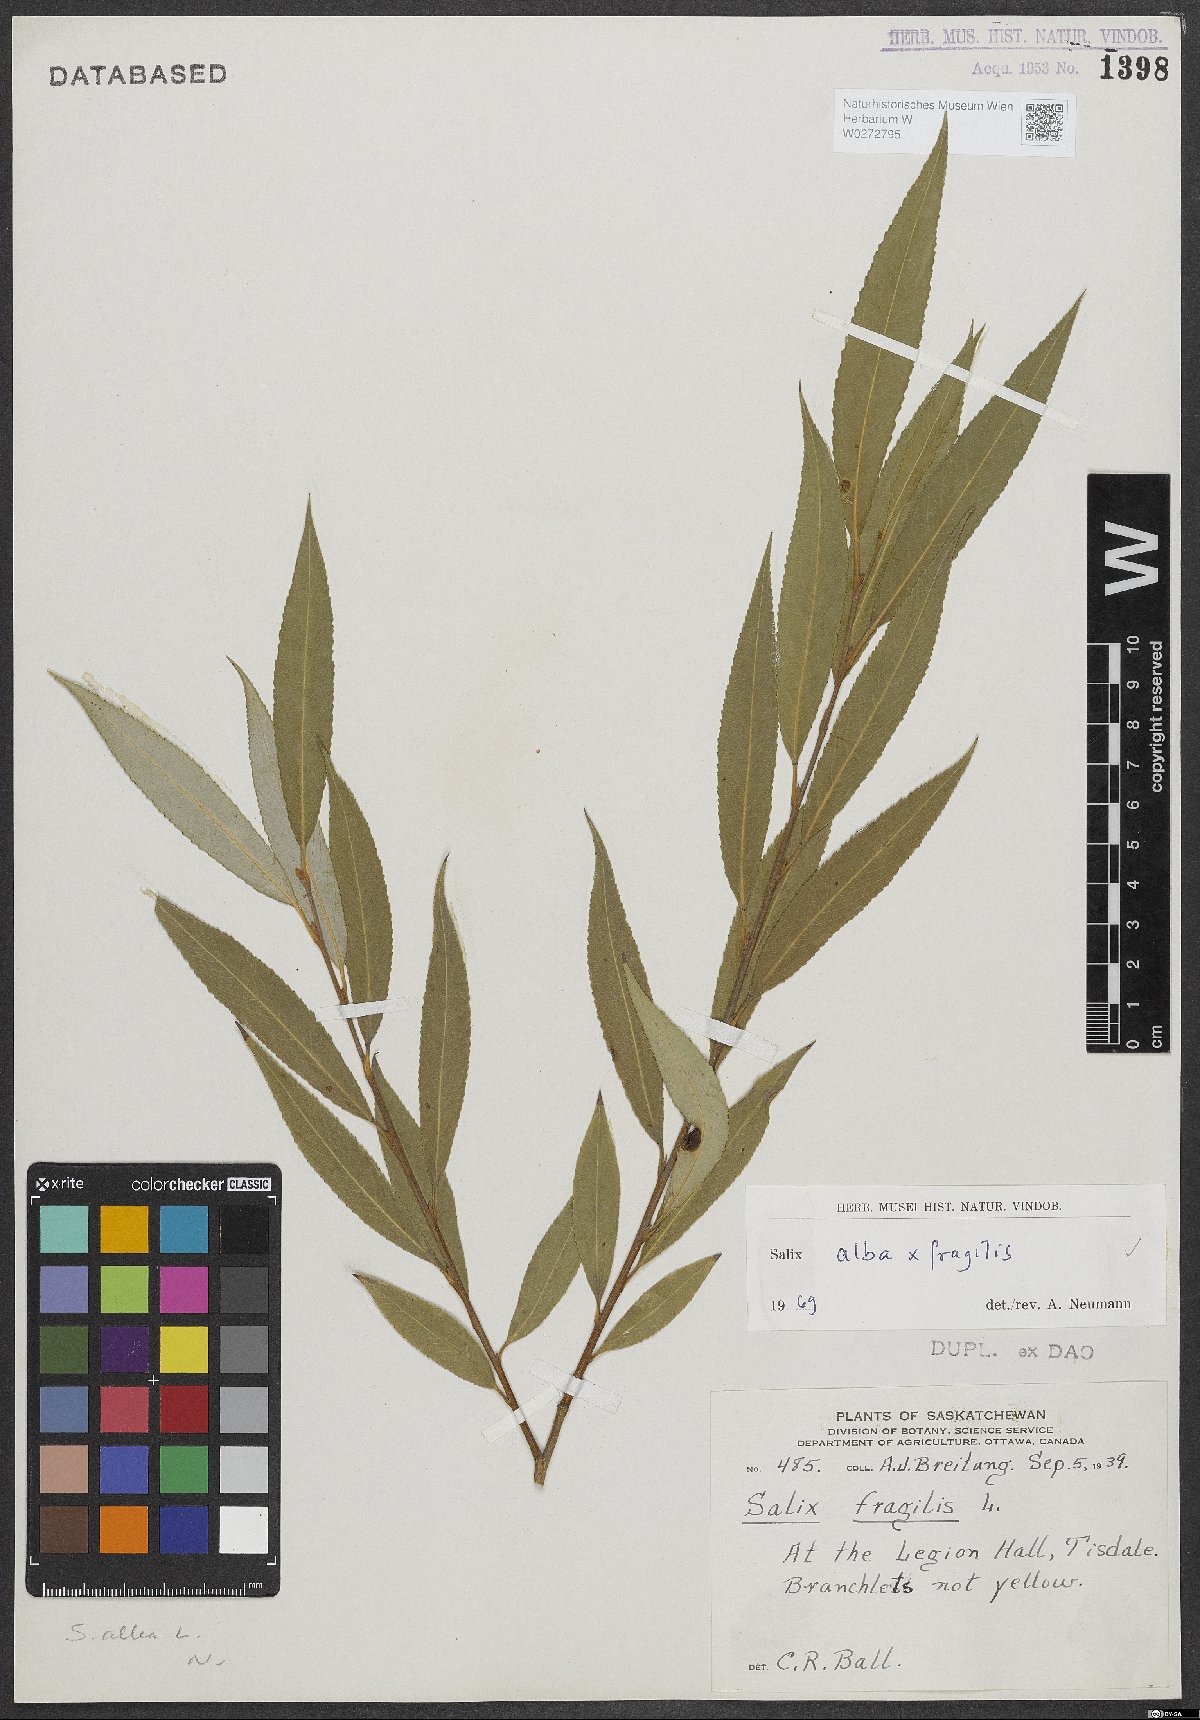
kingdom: Plantae
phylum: Tracheophyta
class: Magnoliopsida
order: Malpighiales
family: Salicaceae
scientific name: Salicaceae
